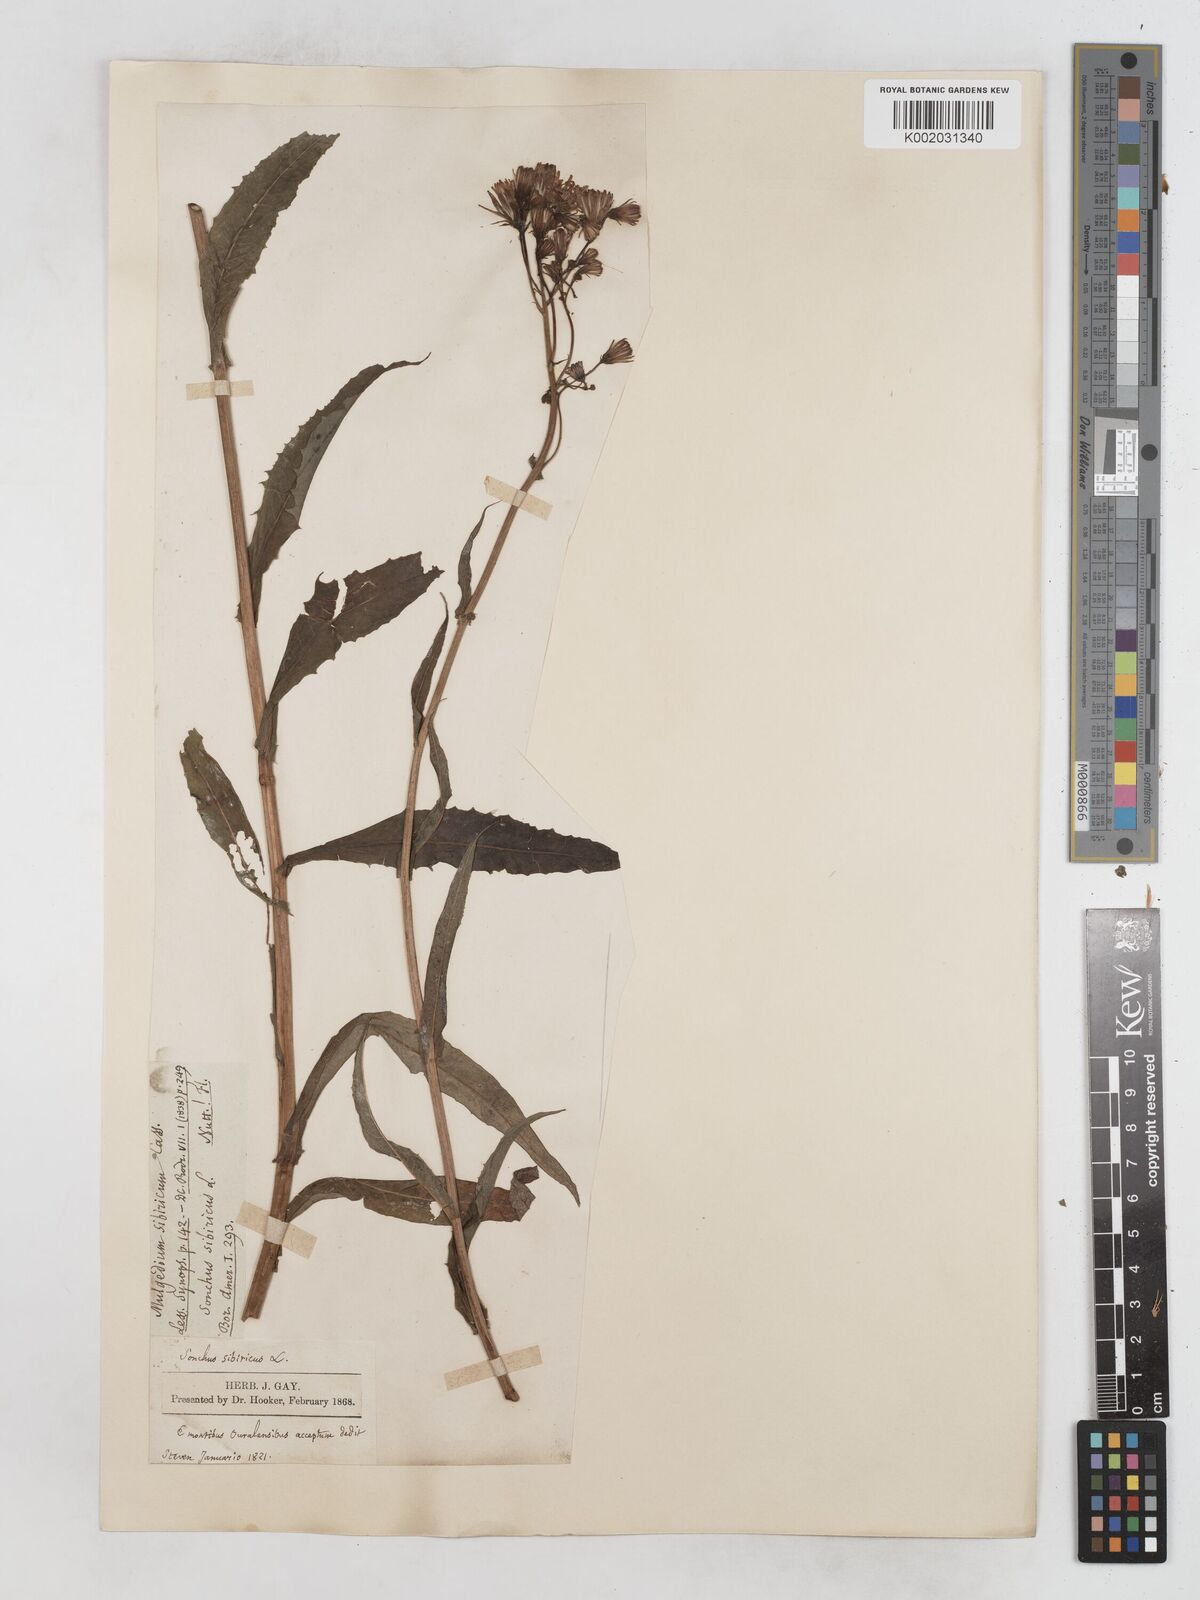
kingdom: Plantae
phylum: Tracheophyta
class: Magnoliopsida
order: Asterales
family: Asteraceae
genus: Lactuca
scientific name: Lactuca sibirica
